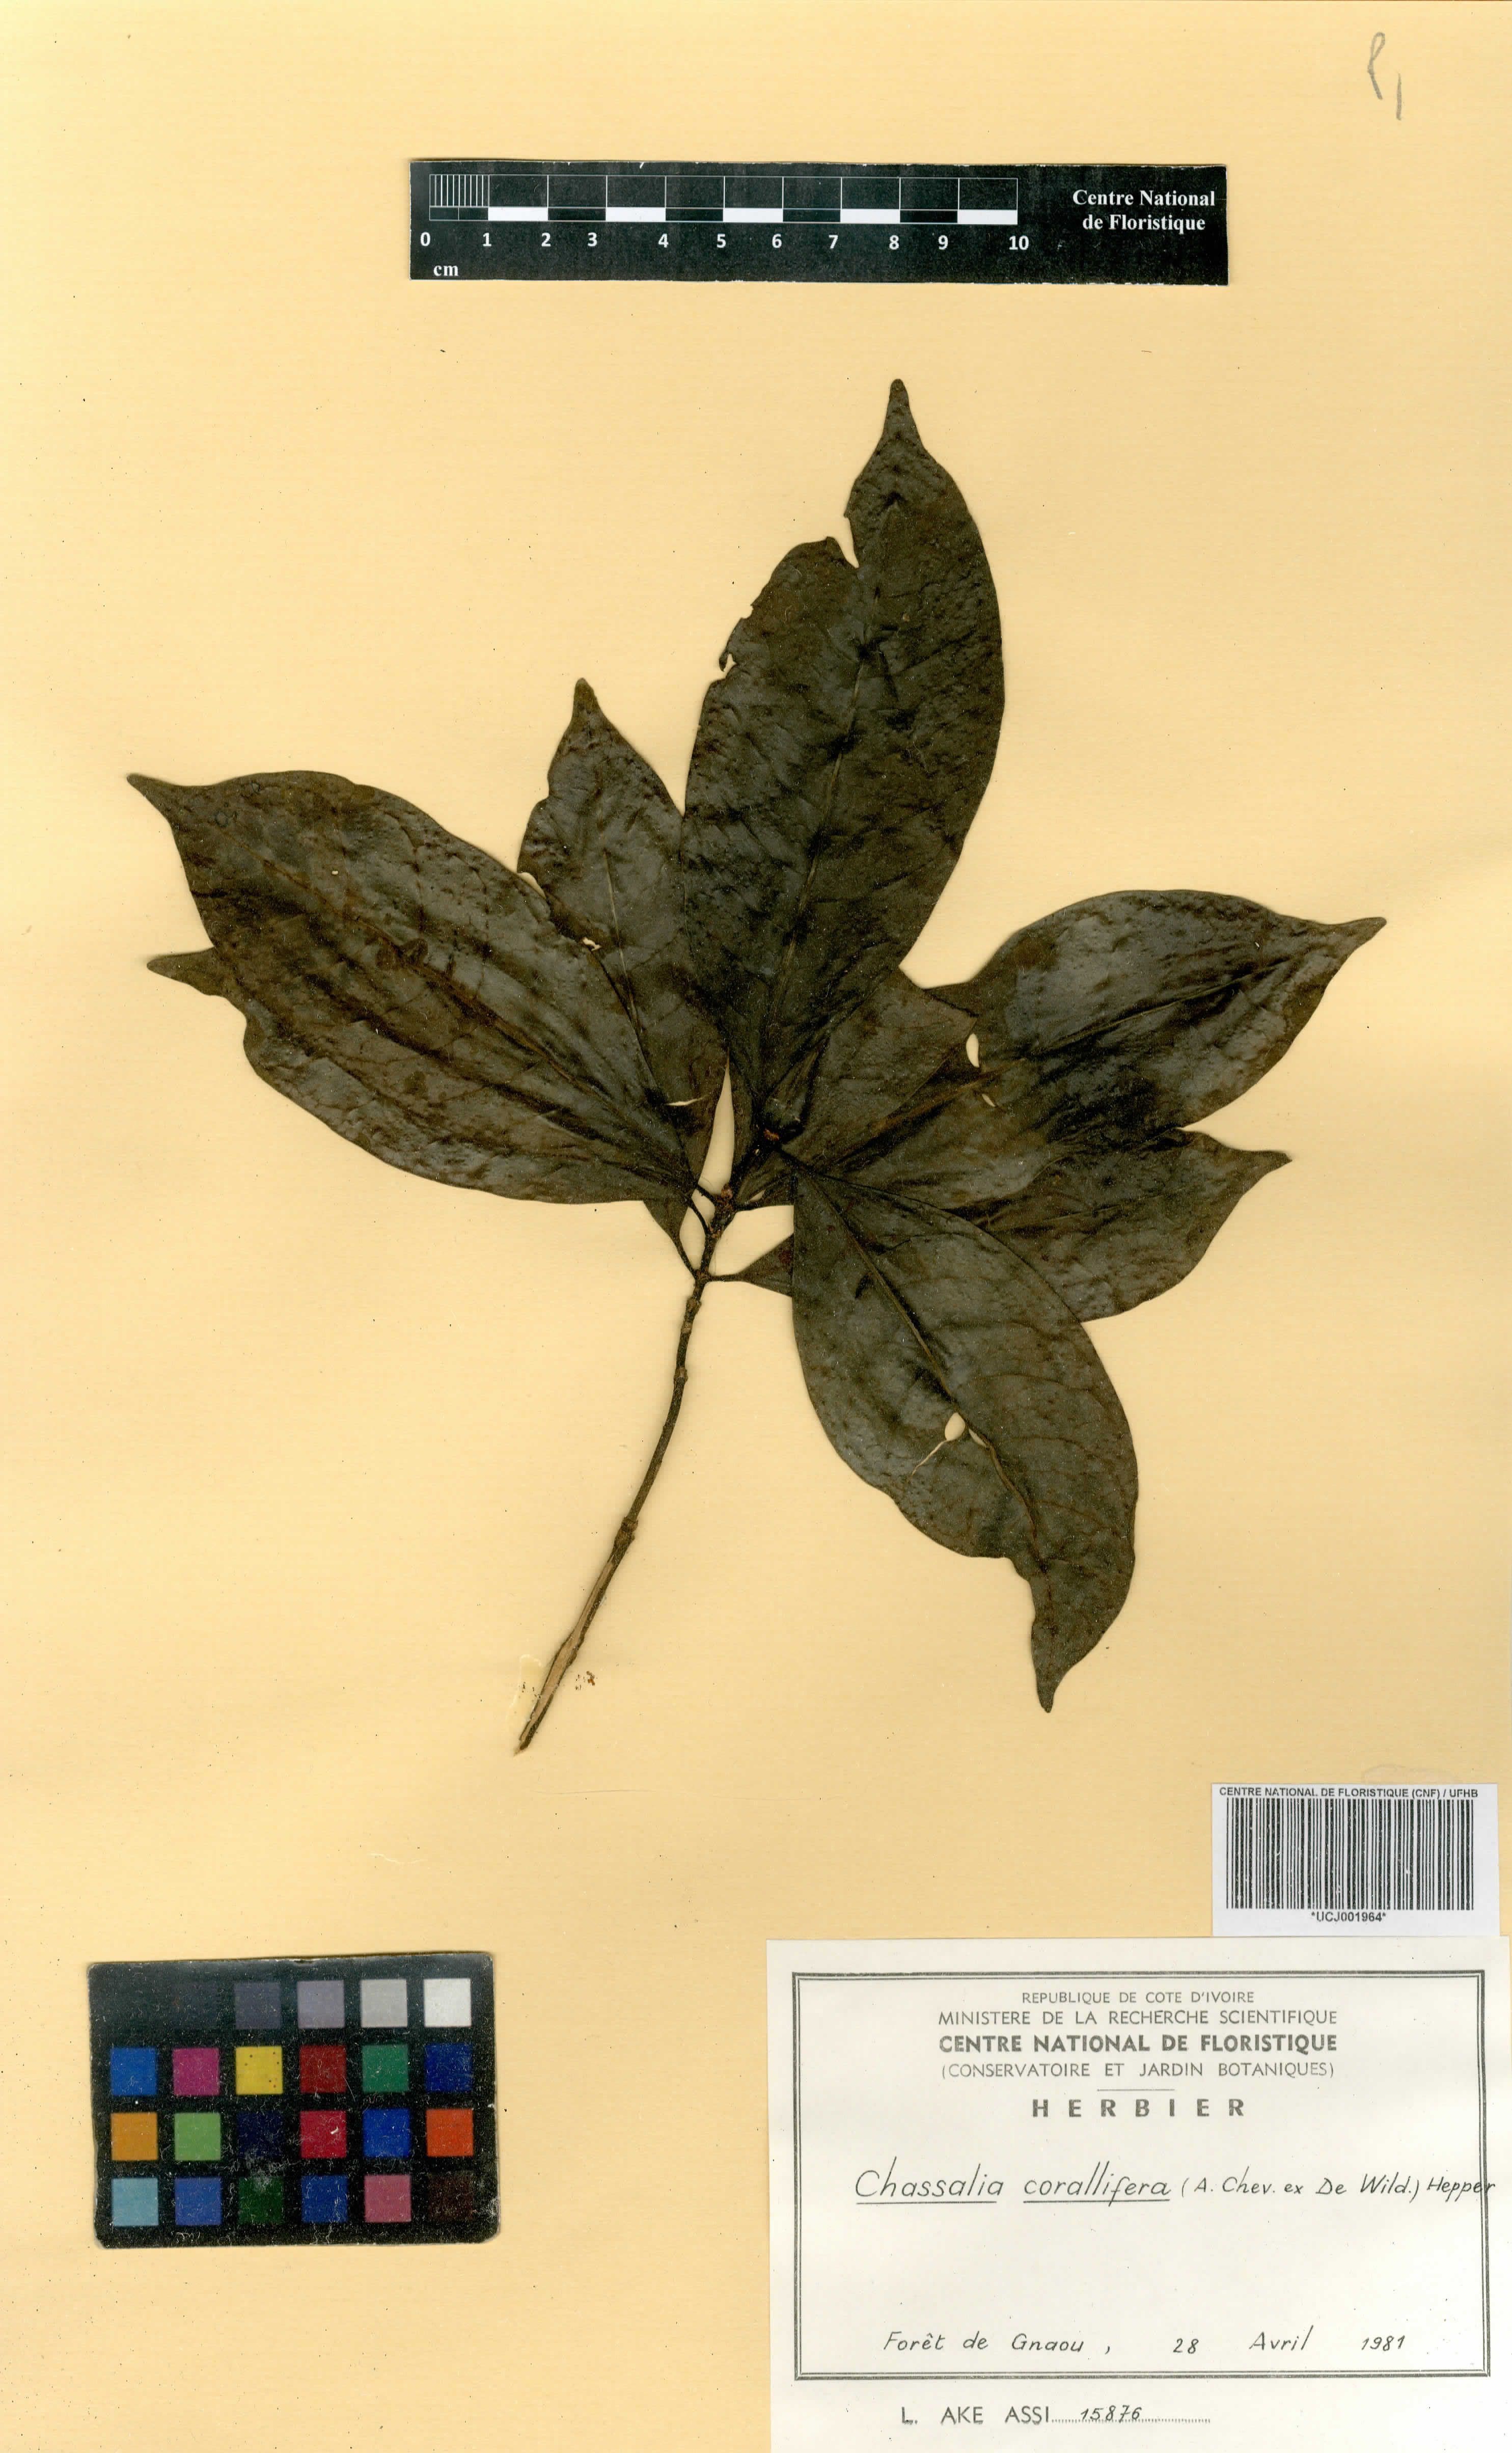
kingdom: Plantae
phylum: Tracheophyta
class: Magnoliopsida
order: Gentianales
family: Rubiaceae
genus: Chassalia
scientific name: Chassalia corallifera
